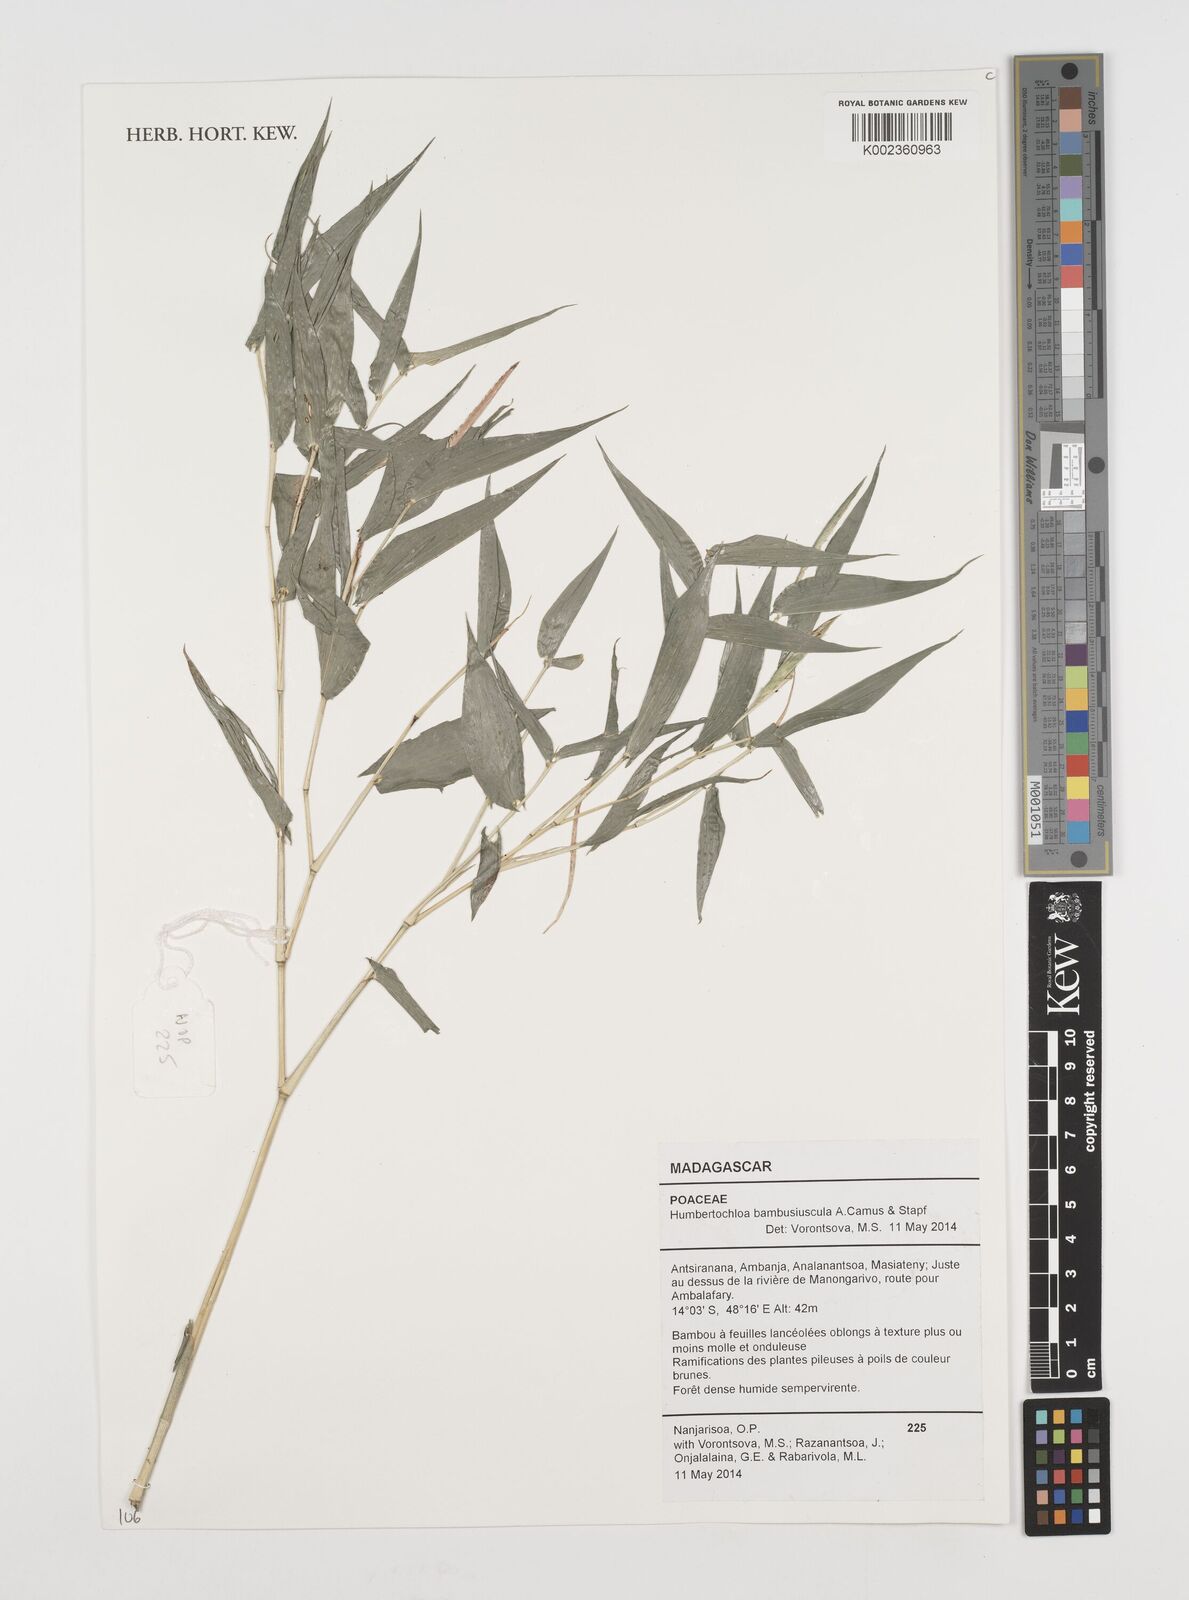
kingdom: Plantae
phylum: Tracheophyta
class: Liliopsida
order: Poales
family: Poaceae
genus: Humbertochloa
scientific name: Humbertochloa bambusiuscula
